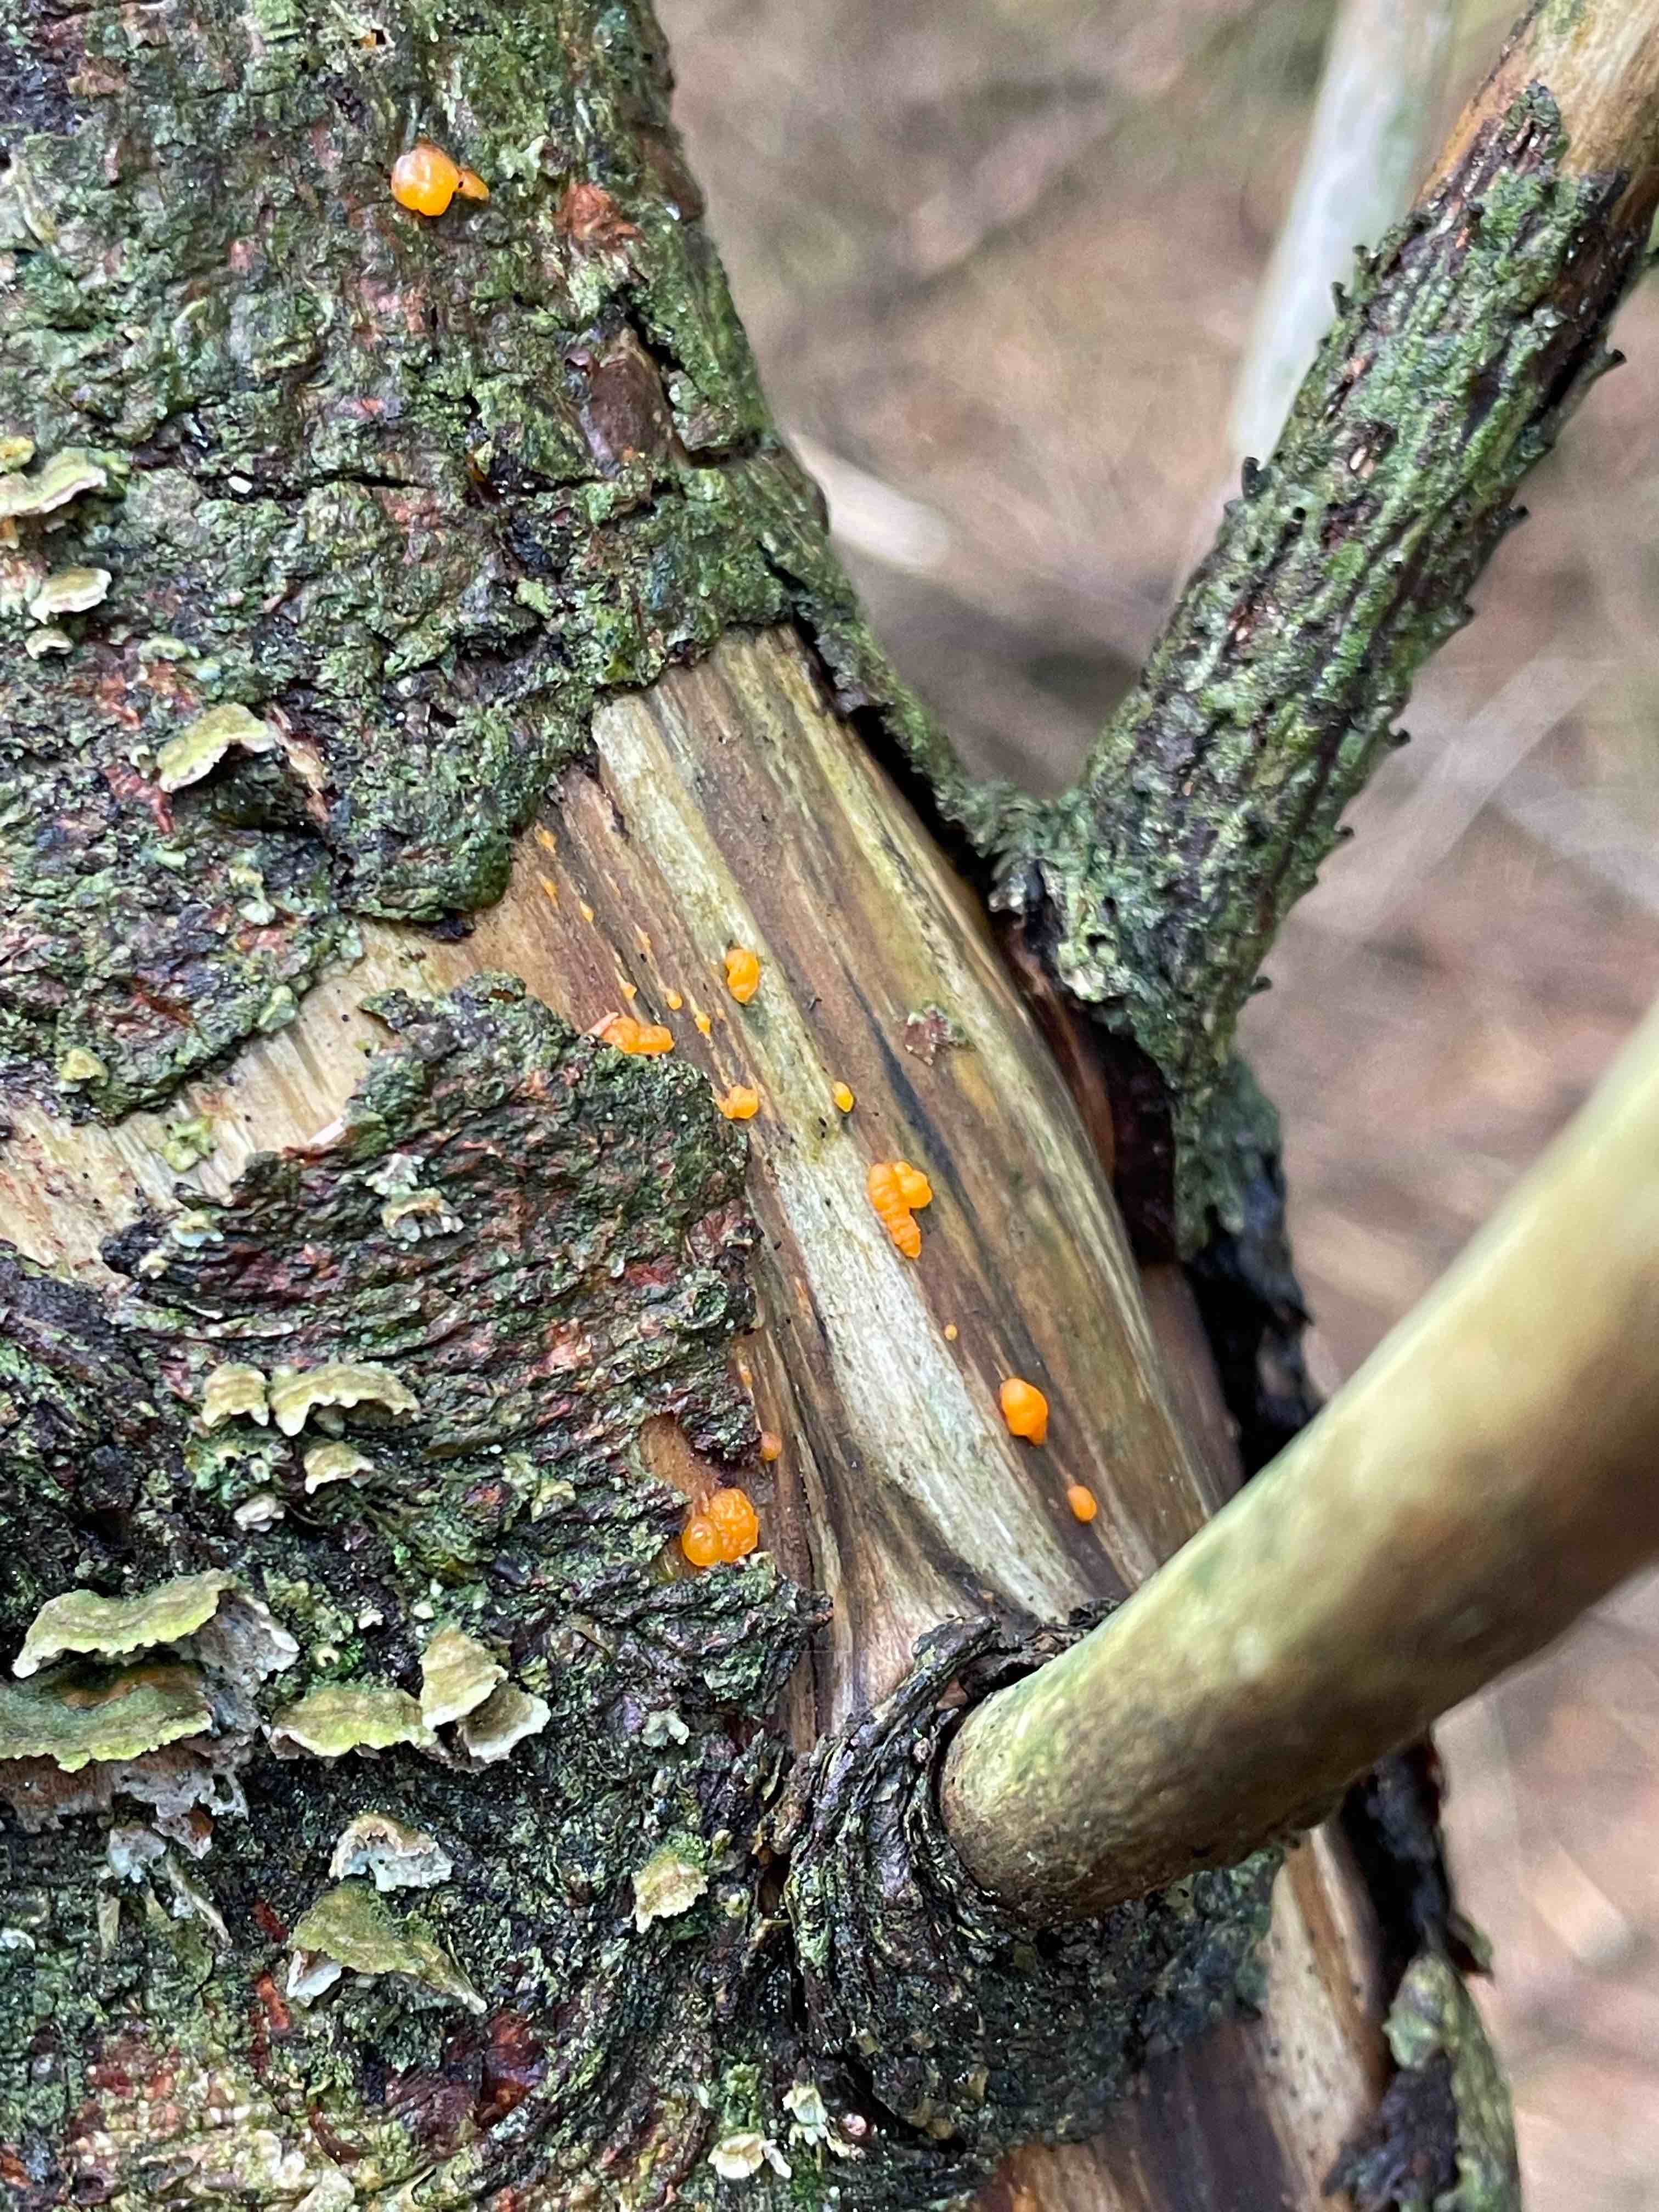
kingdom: Fungi
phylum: Basidiomycota
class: Dacrymycetes
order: Dacrymycetales
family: Dacrymycetaceae
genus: Dacrymyces
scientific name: Dacrymyces stillatus
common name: almindelig tåresvamp
